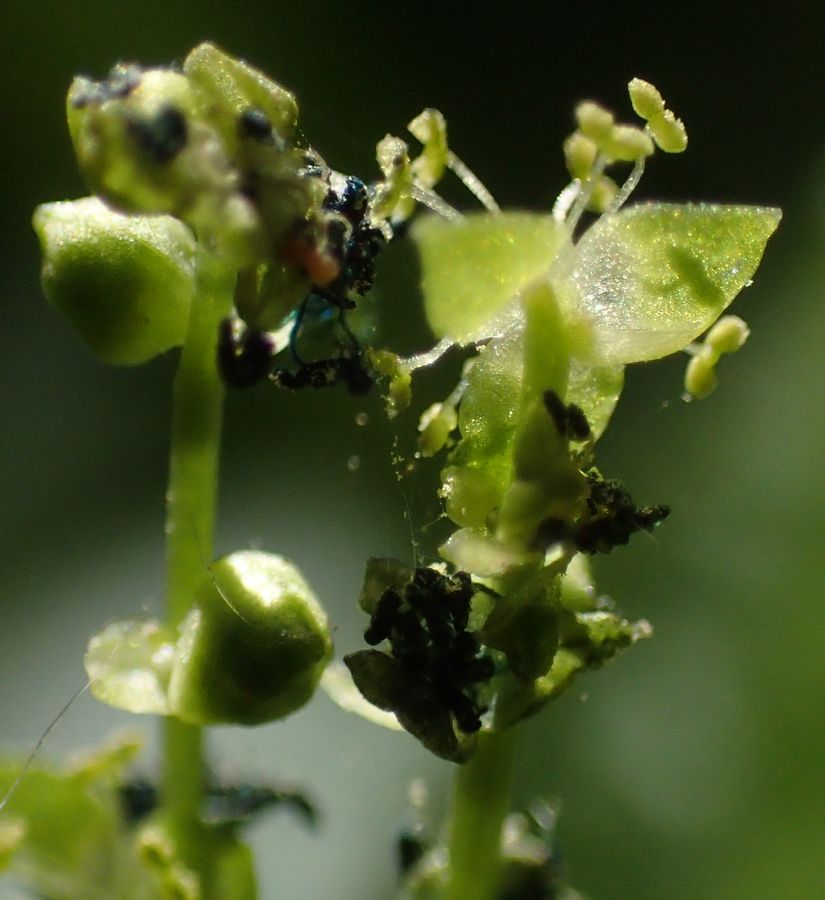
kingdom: Plantae
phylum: Tracheophyta
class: Magnoliopsida
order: Malpighiales
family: Euphorbiaceae
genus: Mercurialis
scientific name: Mercurialis perennis
